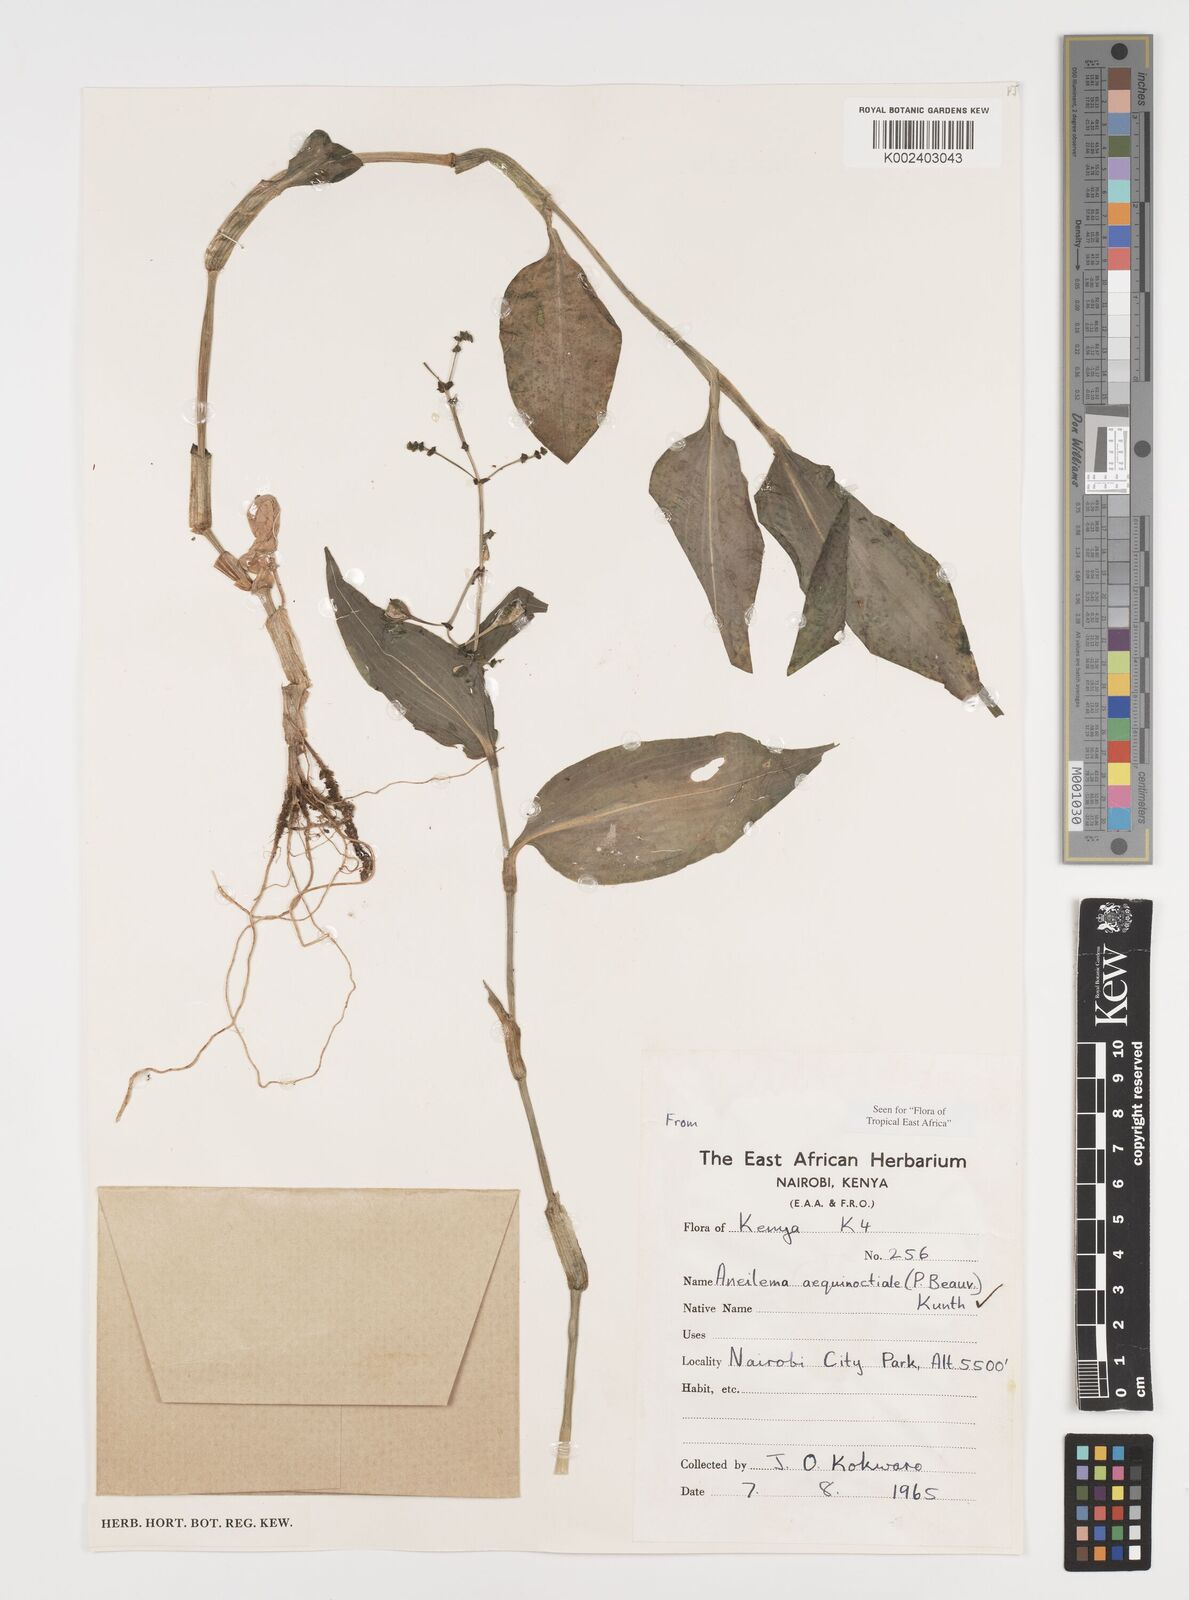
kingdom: Plantae
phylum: Tracheophyta
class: Liliopsida
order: Commelinales
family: Commelinaceae
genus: Aneilema
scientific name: Aneilema aequinoctiale
